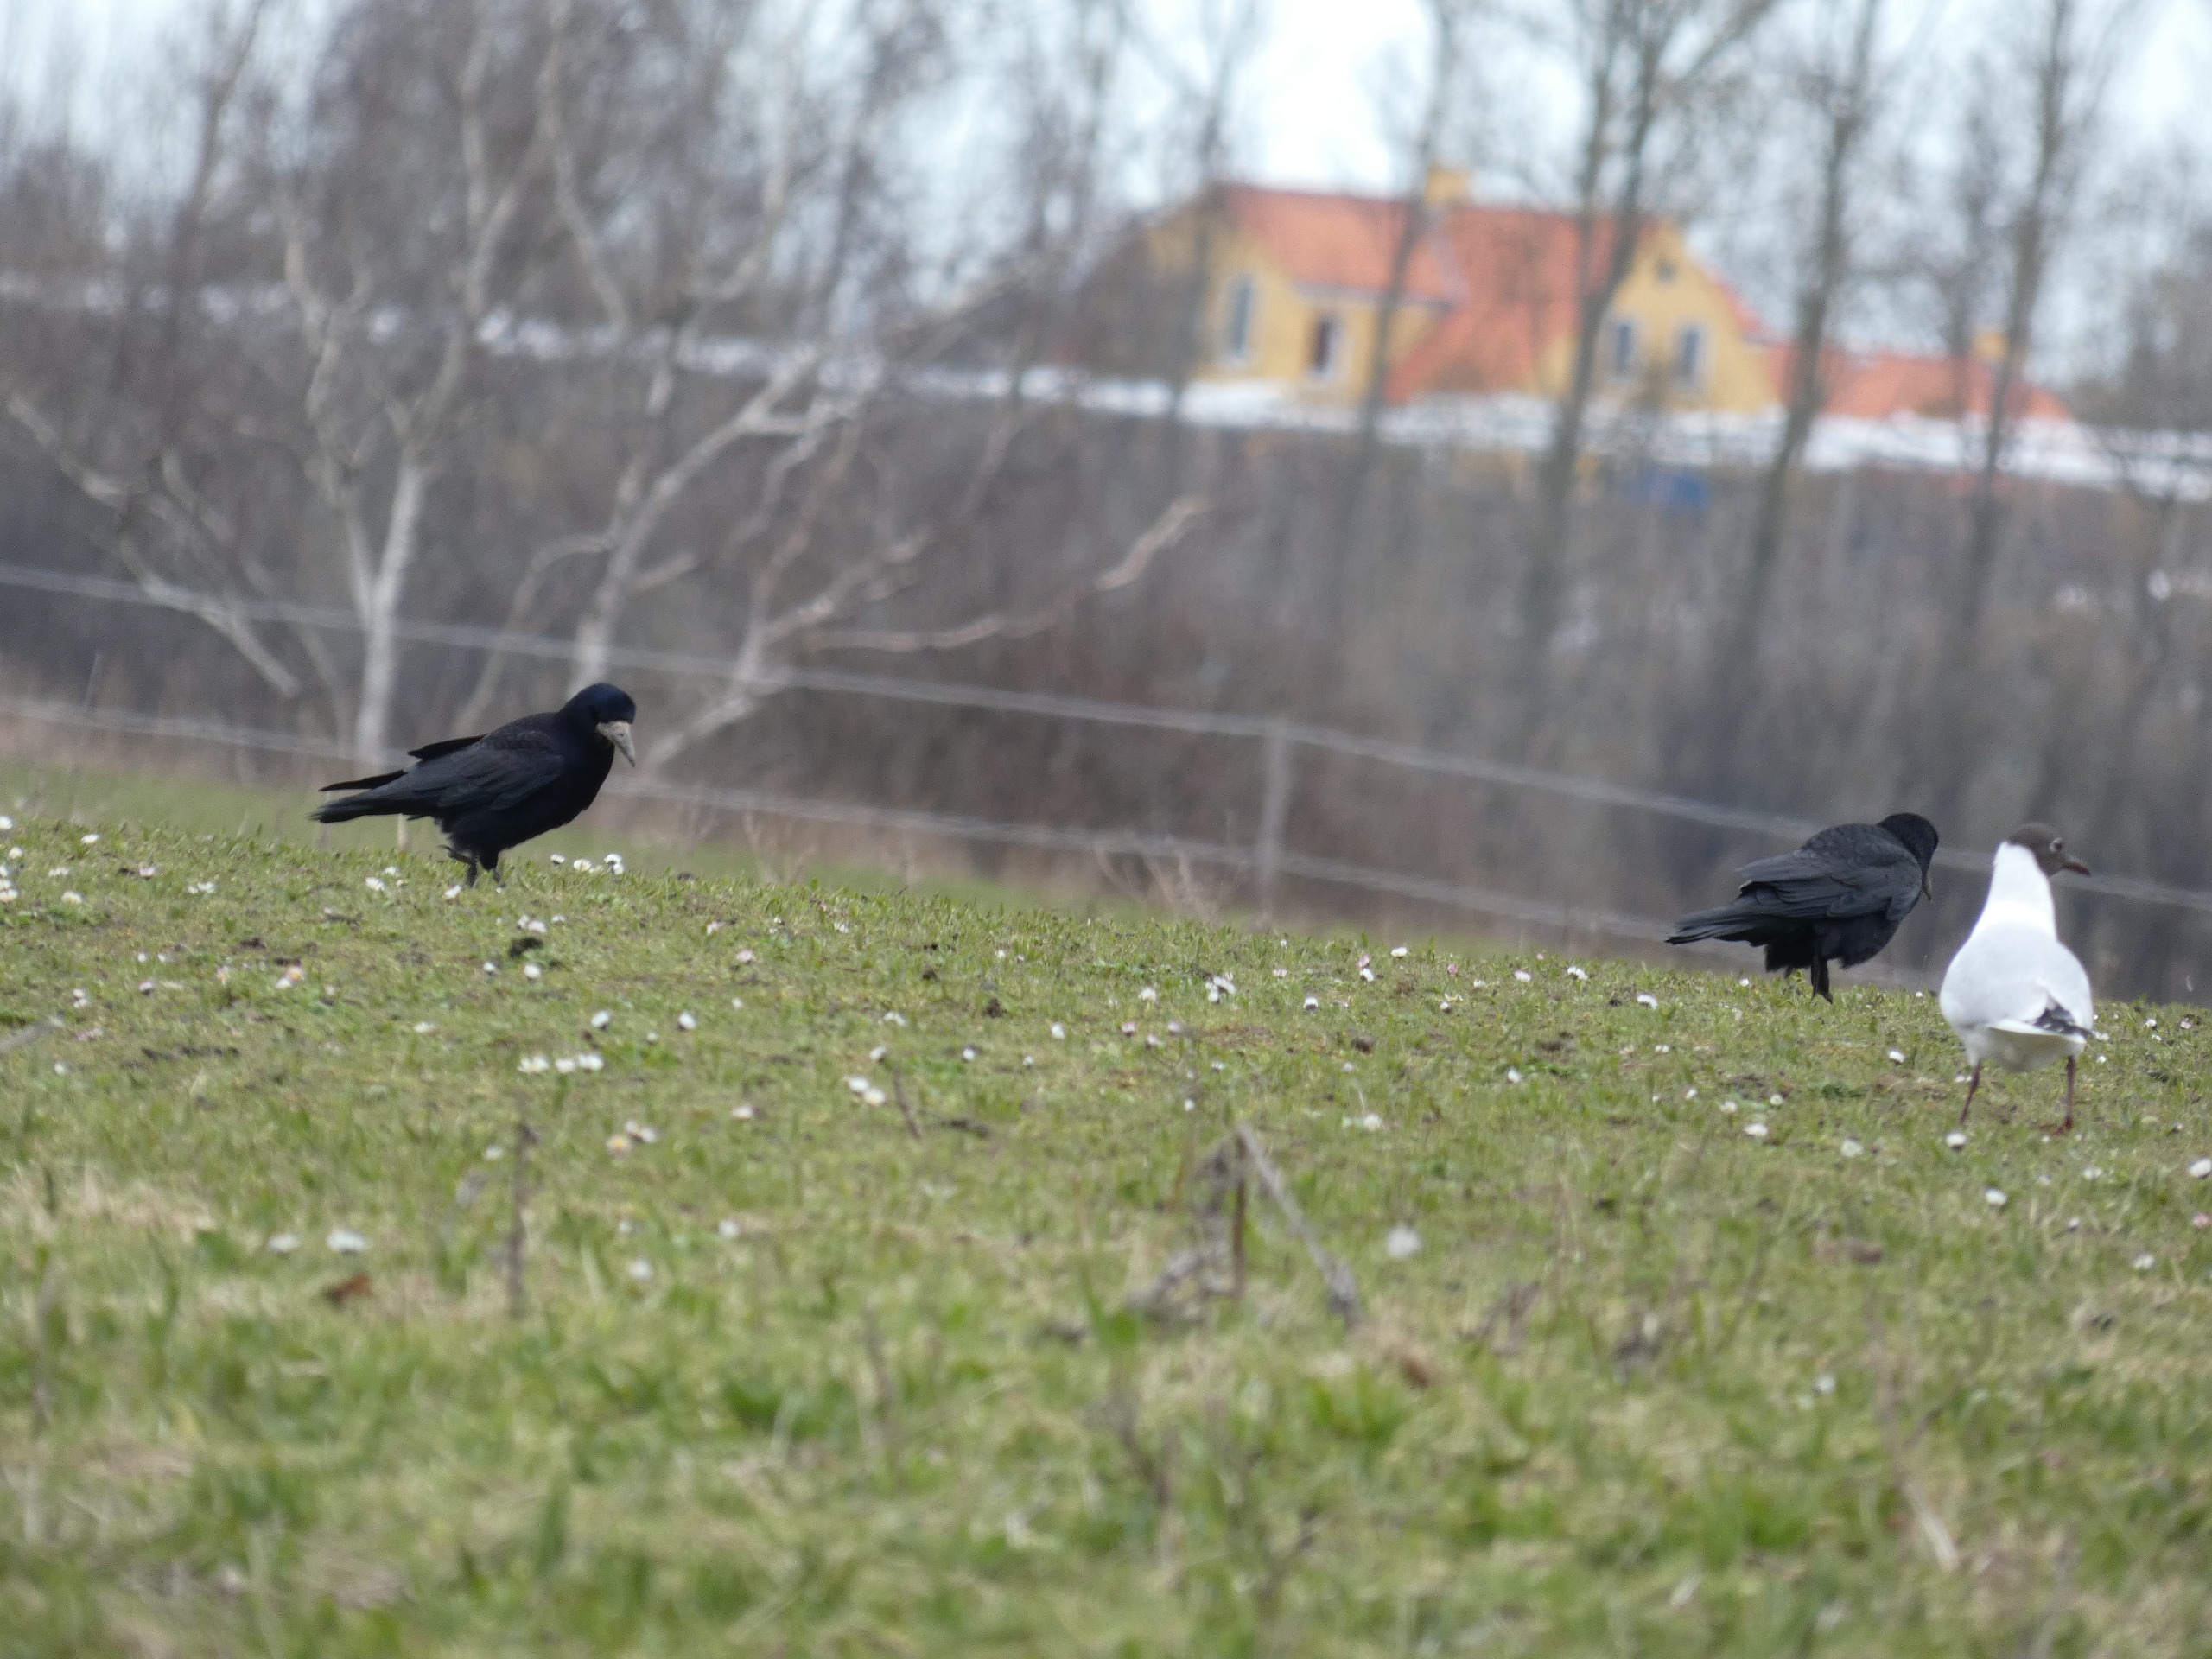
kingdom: Animalia
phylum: Chordata
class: Aves
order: Charadriiformes
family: Laridae
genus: Chroicocephalus
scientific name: Chroicocephalus ridibundus
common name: Hættemåge
